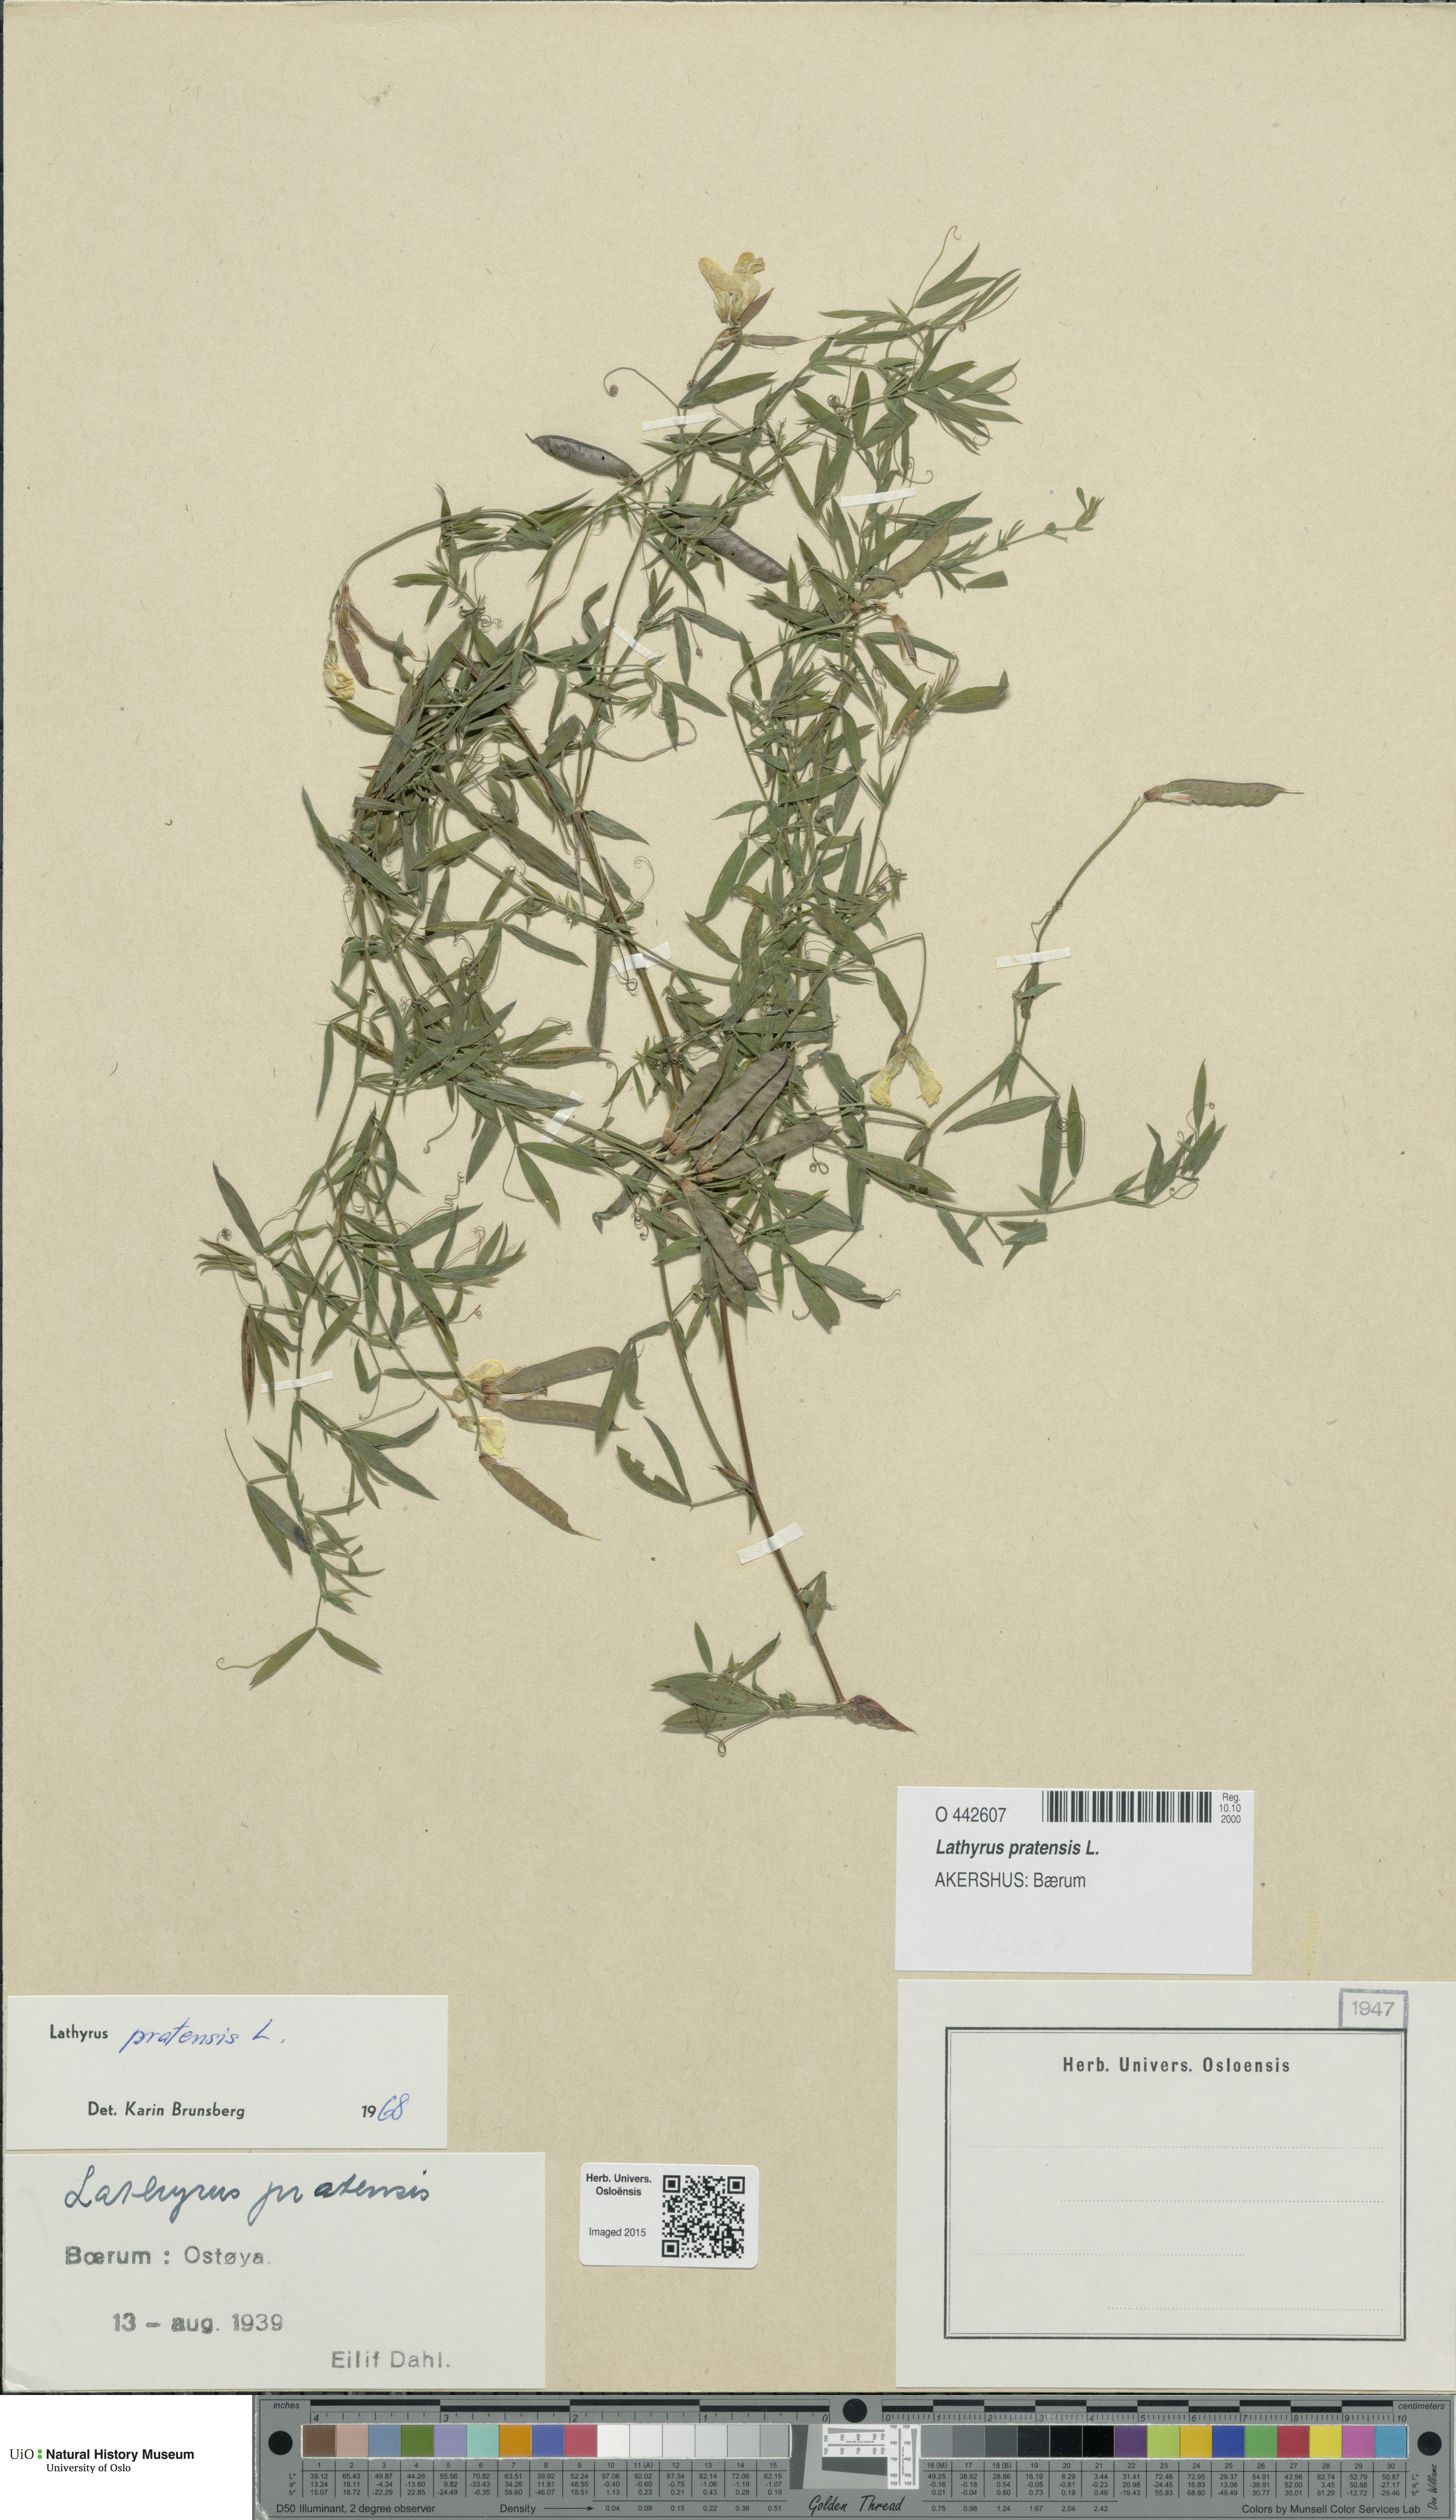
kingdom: Plantae
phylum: Tracheophyta
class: Magnoliopsida
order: Fabales
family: Fabaceae
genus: Lathyrus
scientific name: Lathyrus pratensis
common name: Meadow vetchling
